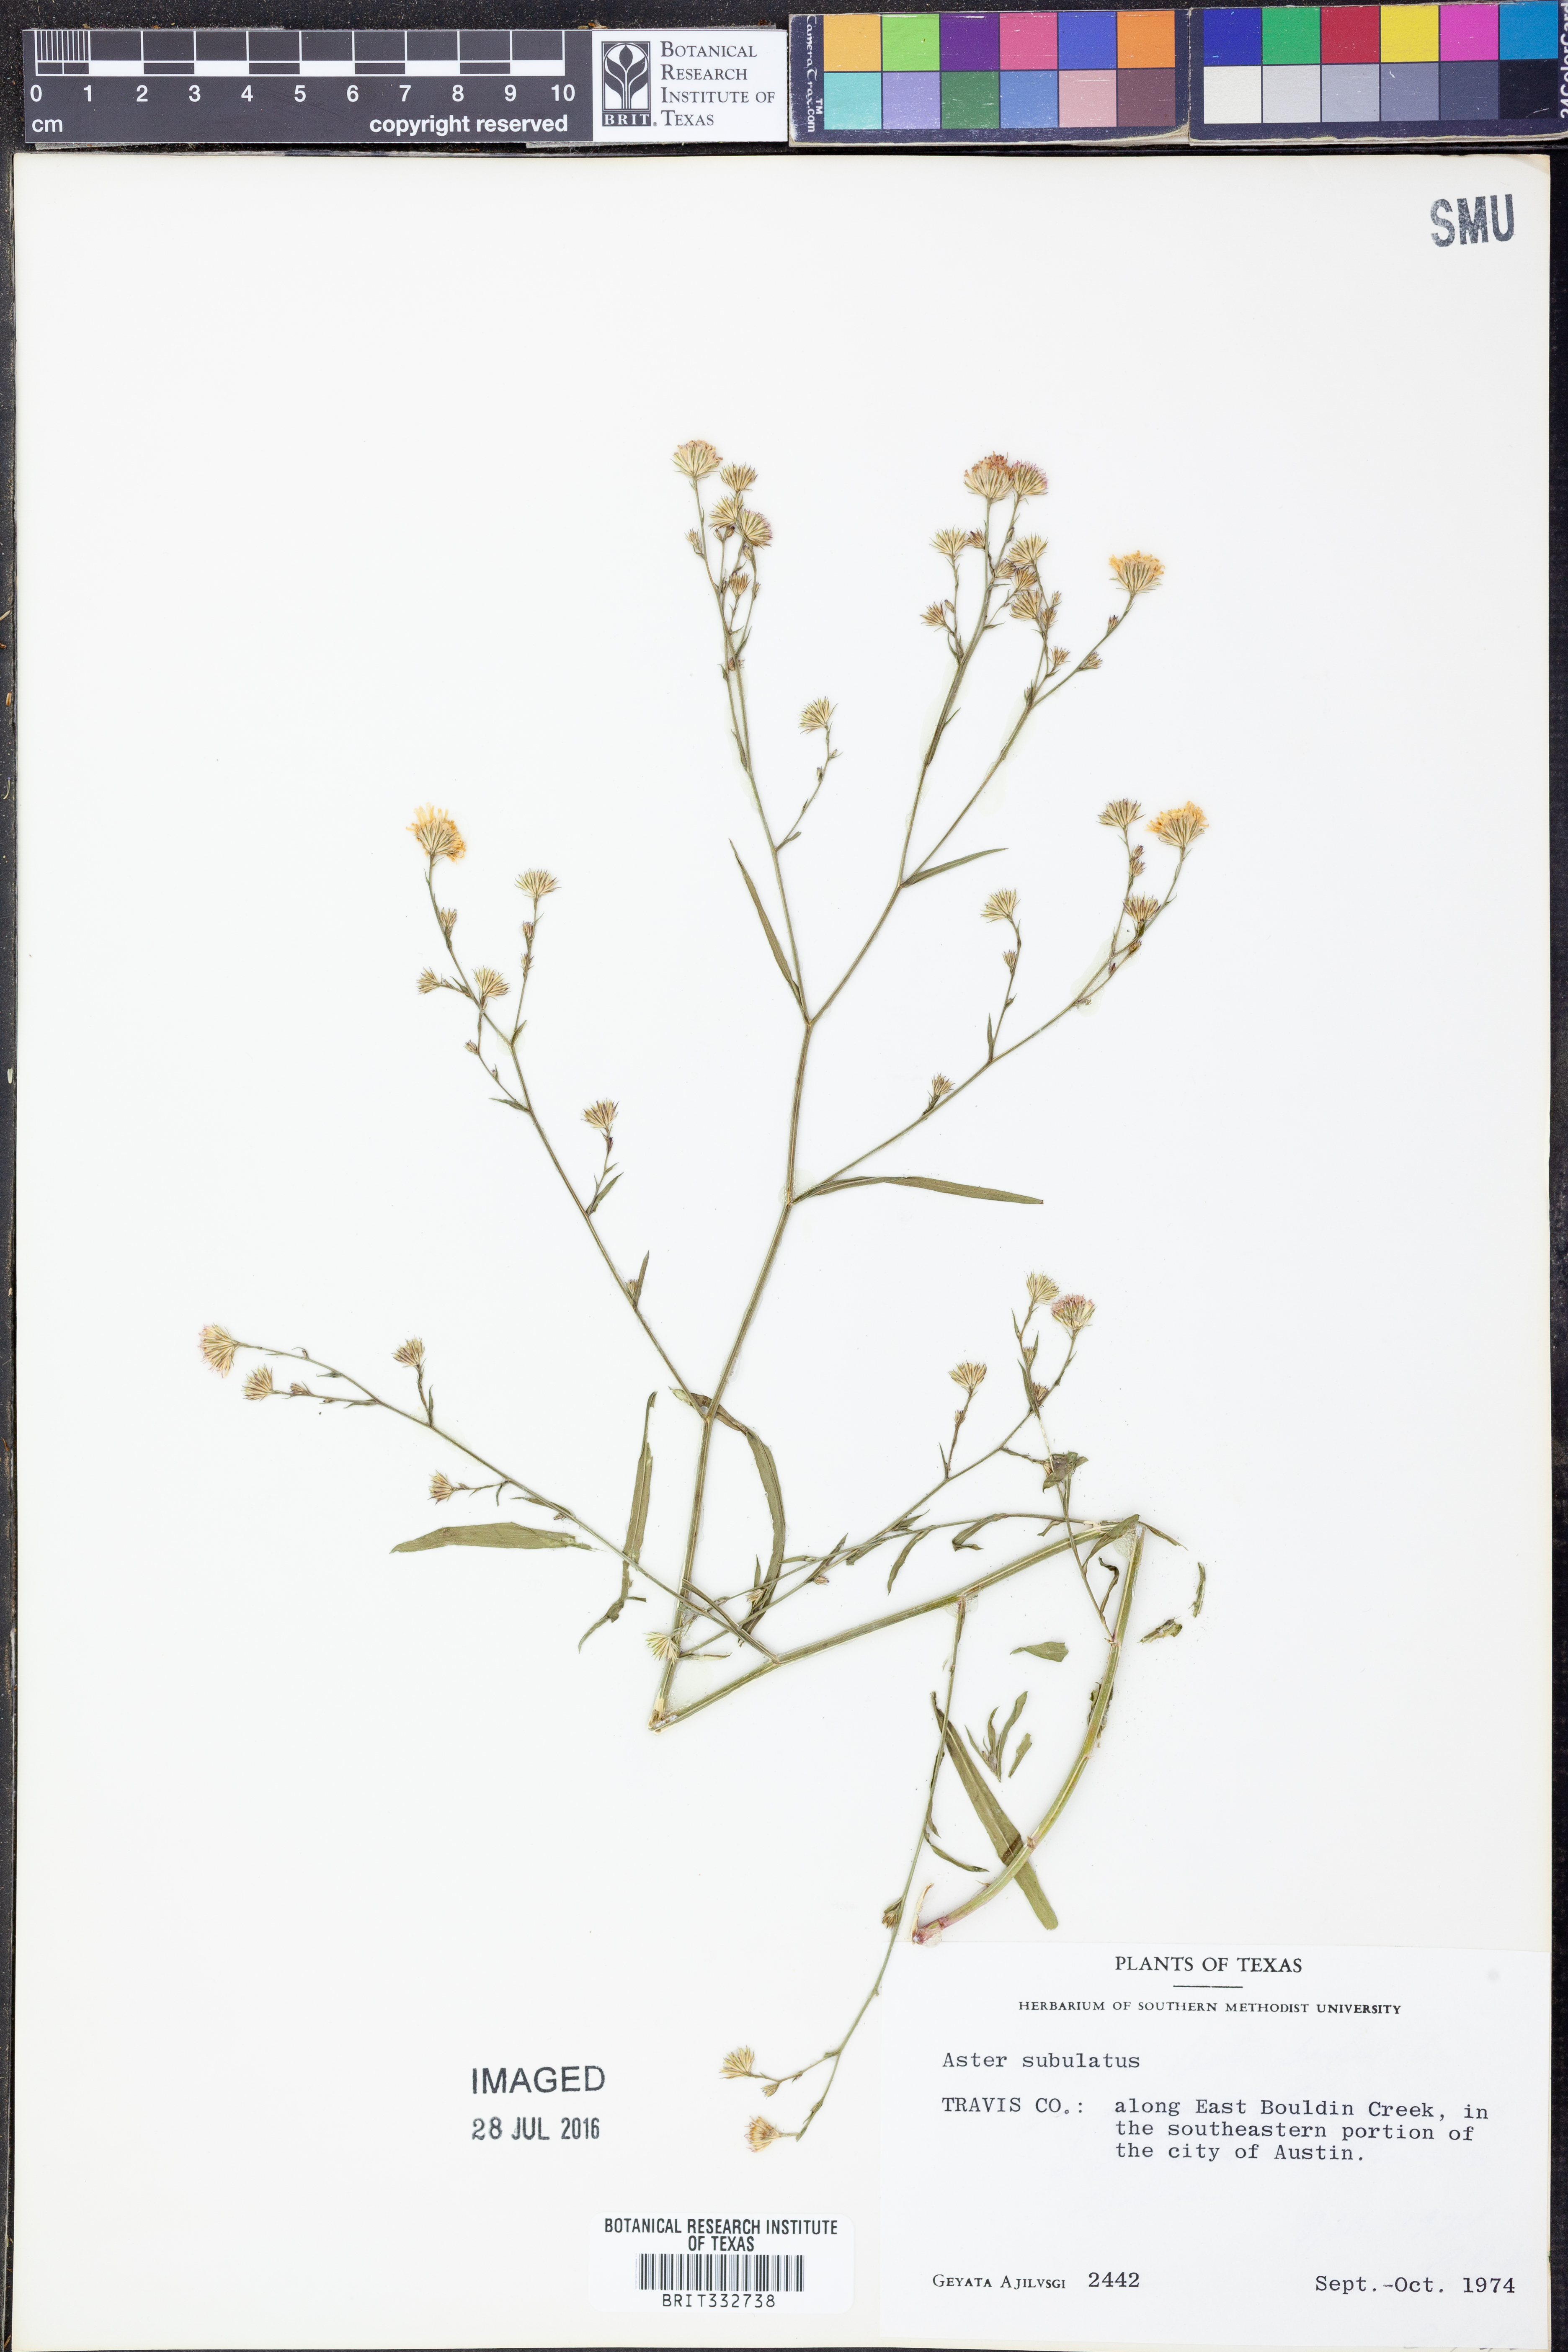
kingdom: Plantae
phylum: Tracheophyta
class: Magnoliopsida
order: Asterales
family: Asteraceae
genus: Symphyotrichum
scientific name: Symphyotrichum subulatum
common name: Annual saltmarsh aster
